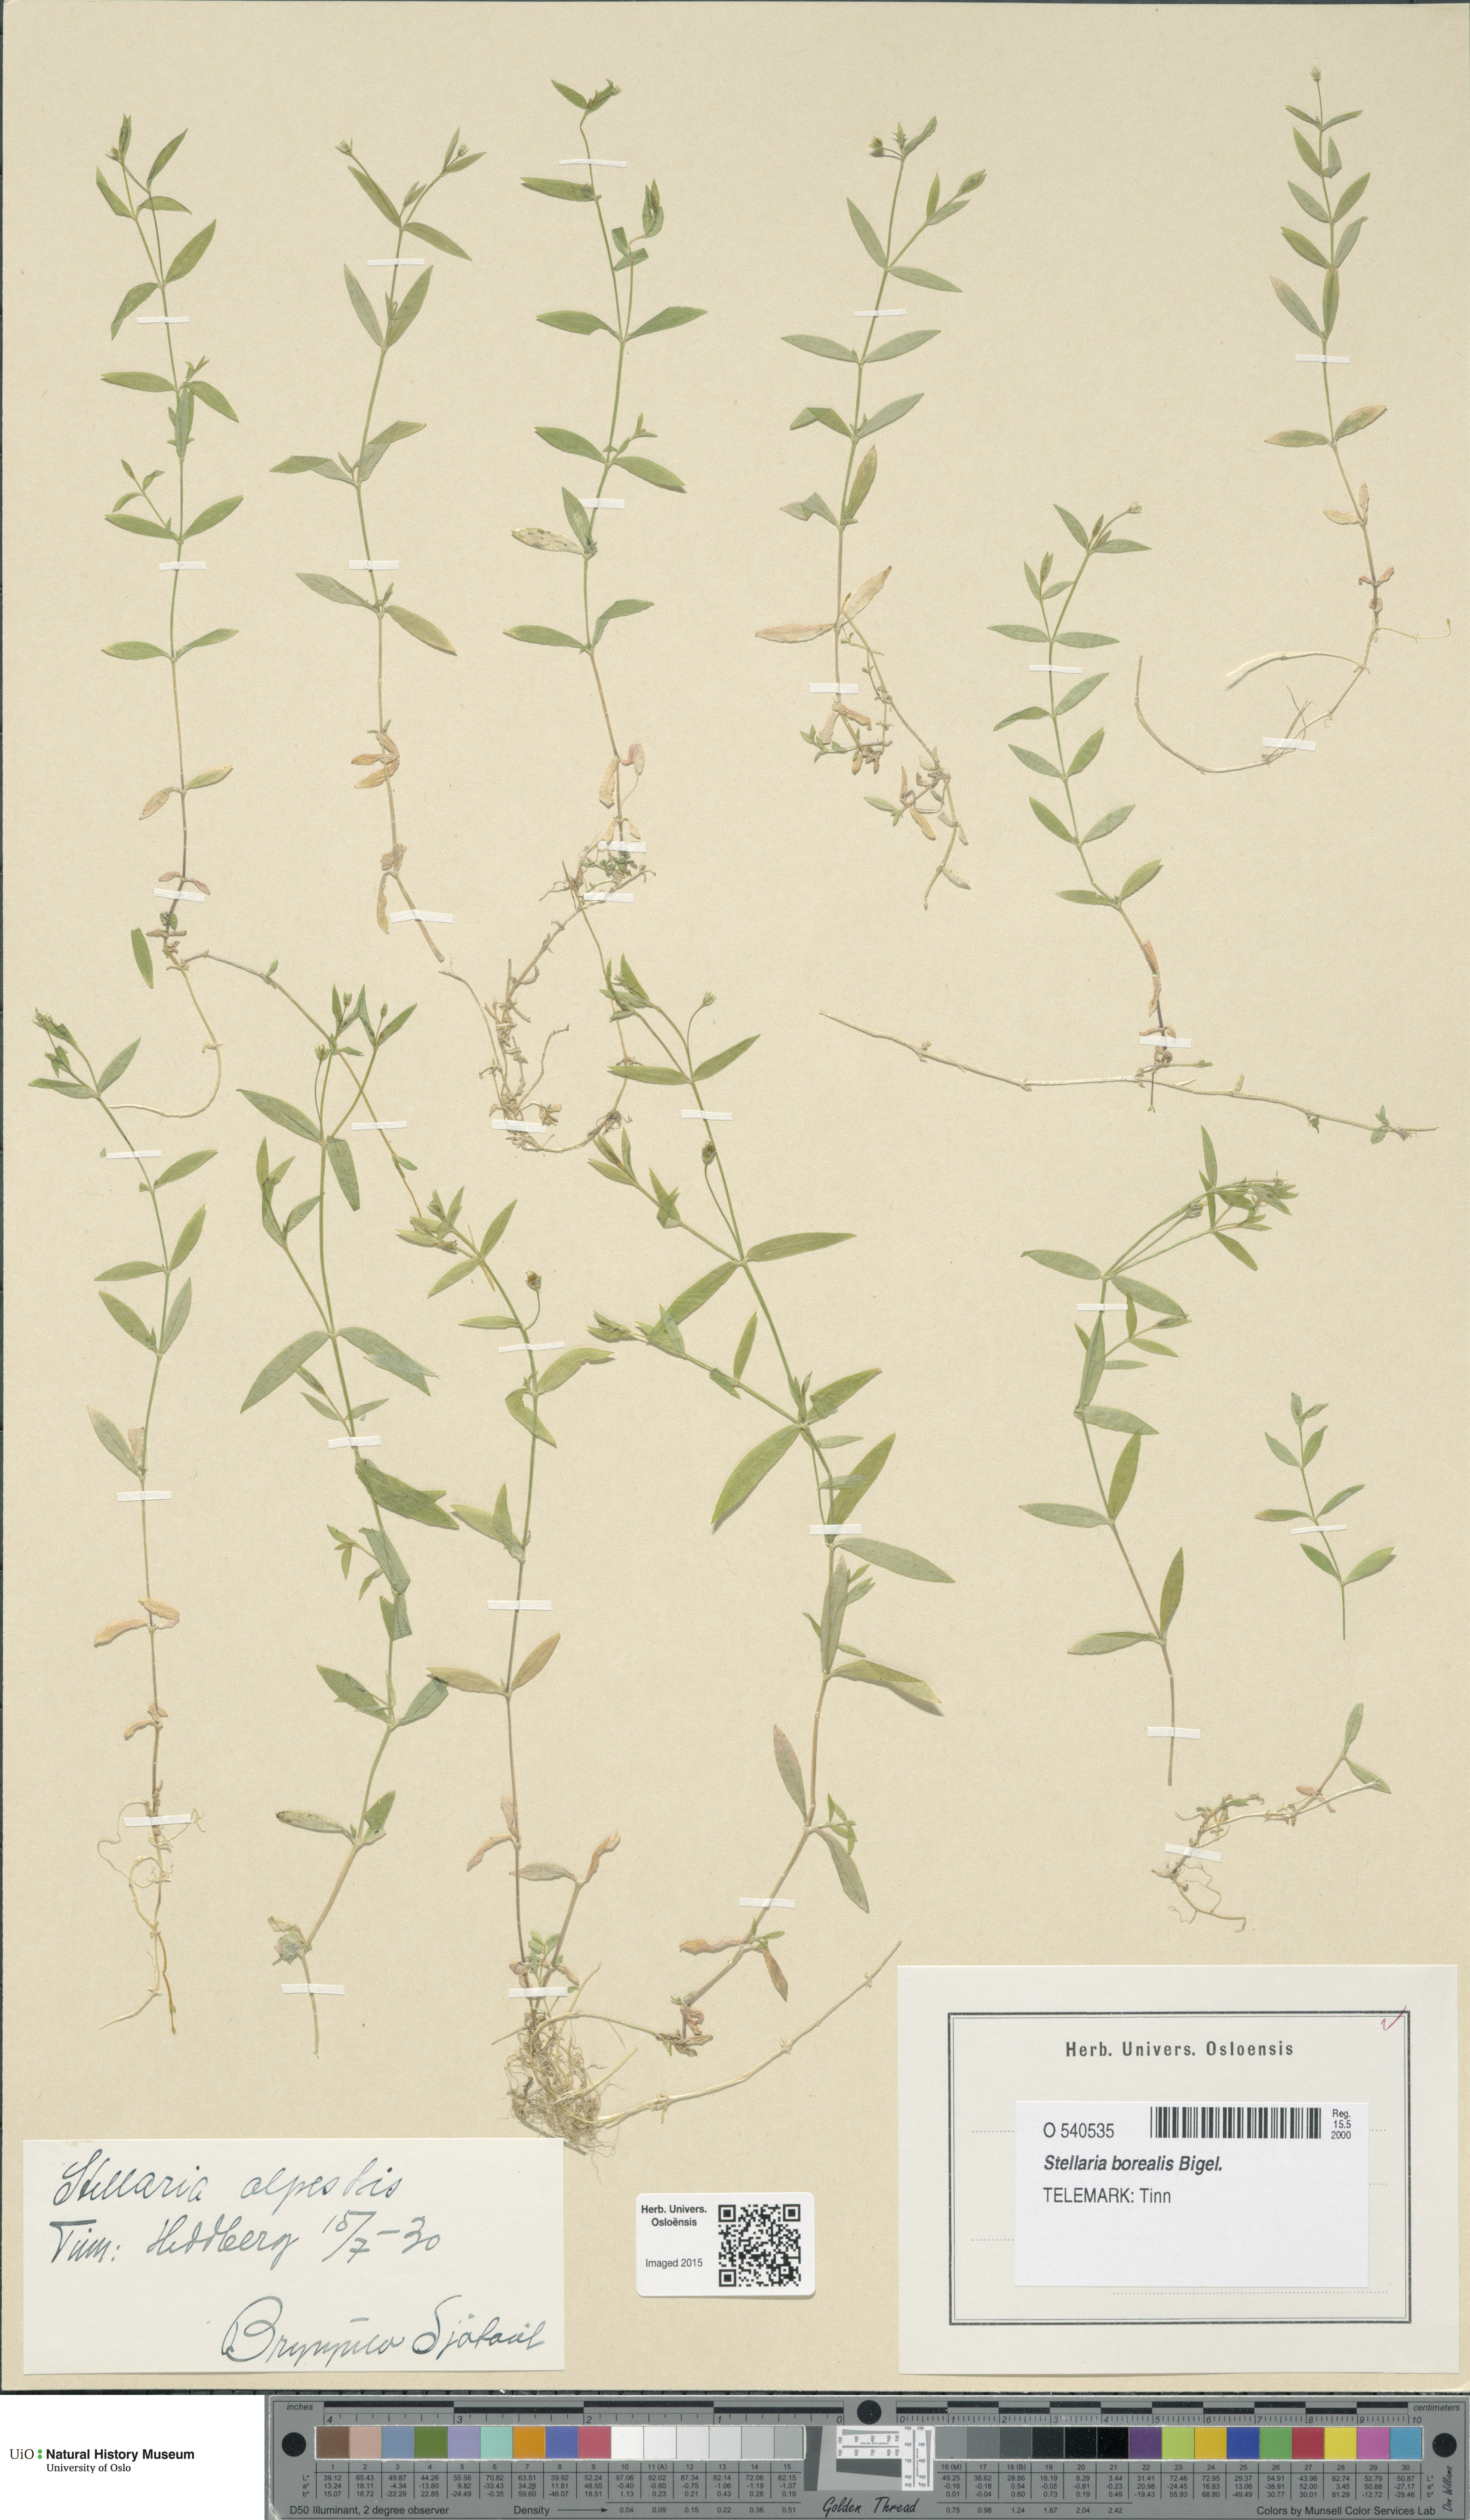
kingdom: Plantae
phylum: Tracheophyta
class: Magnoliopsida
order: Caryophyllales
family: Caryophyllaceae
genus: Stellaria
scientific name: Stellaria alpestris
